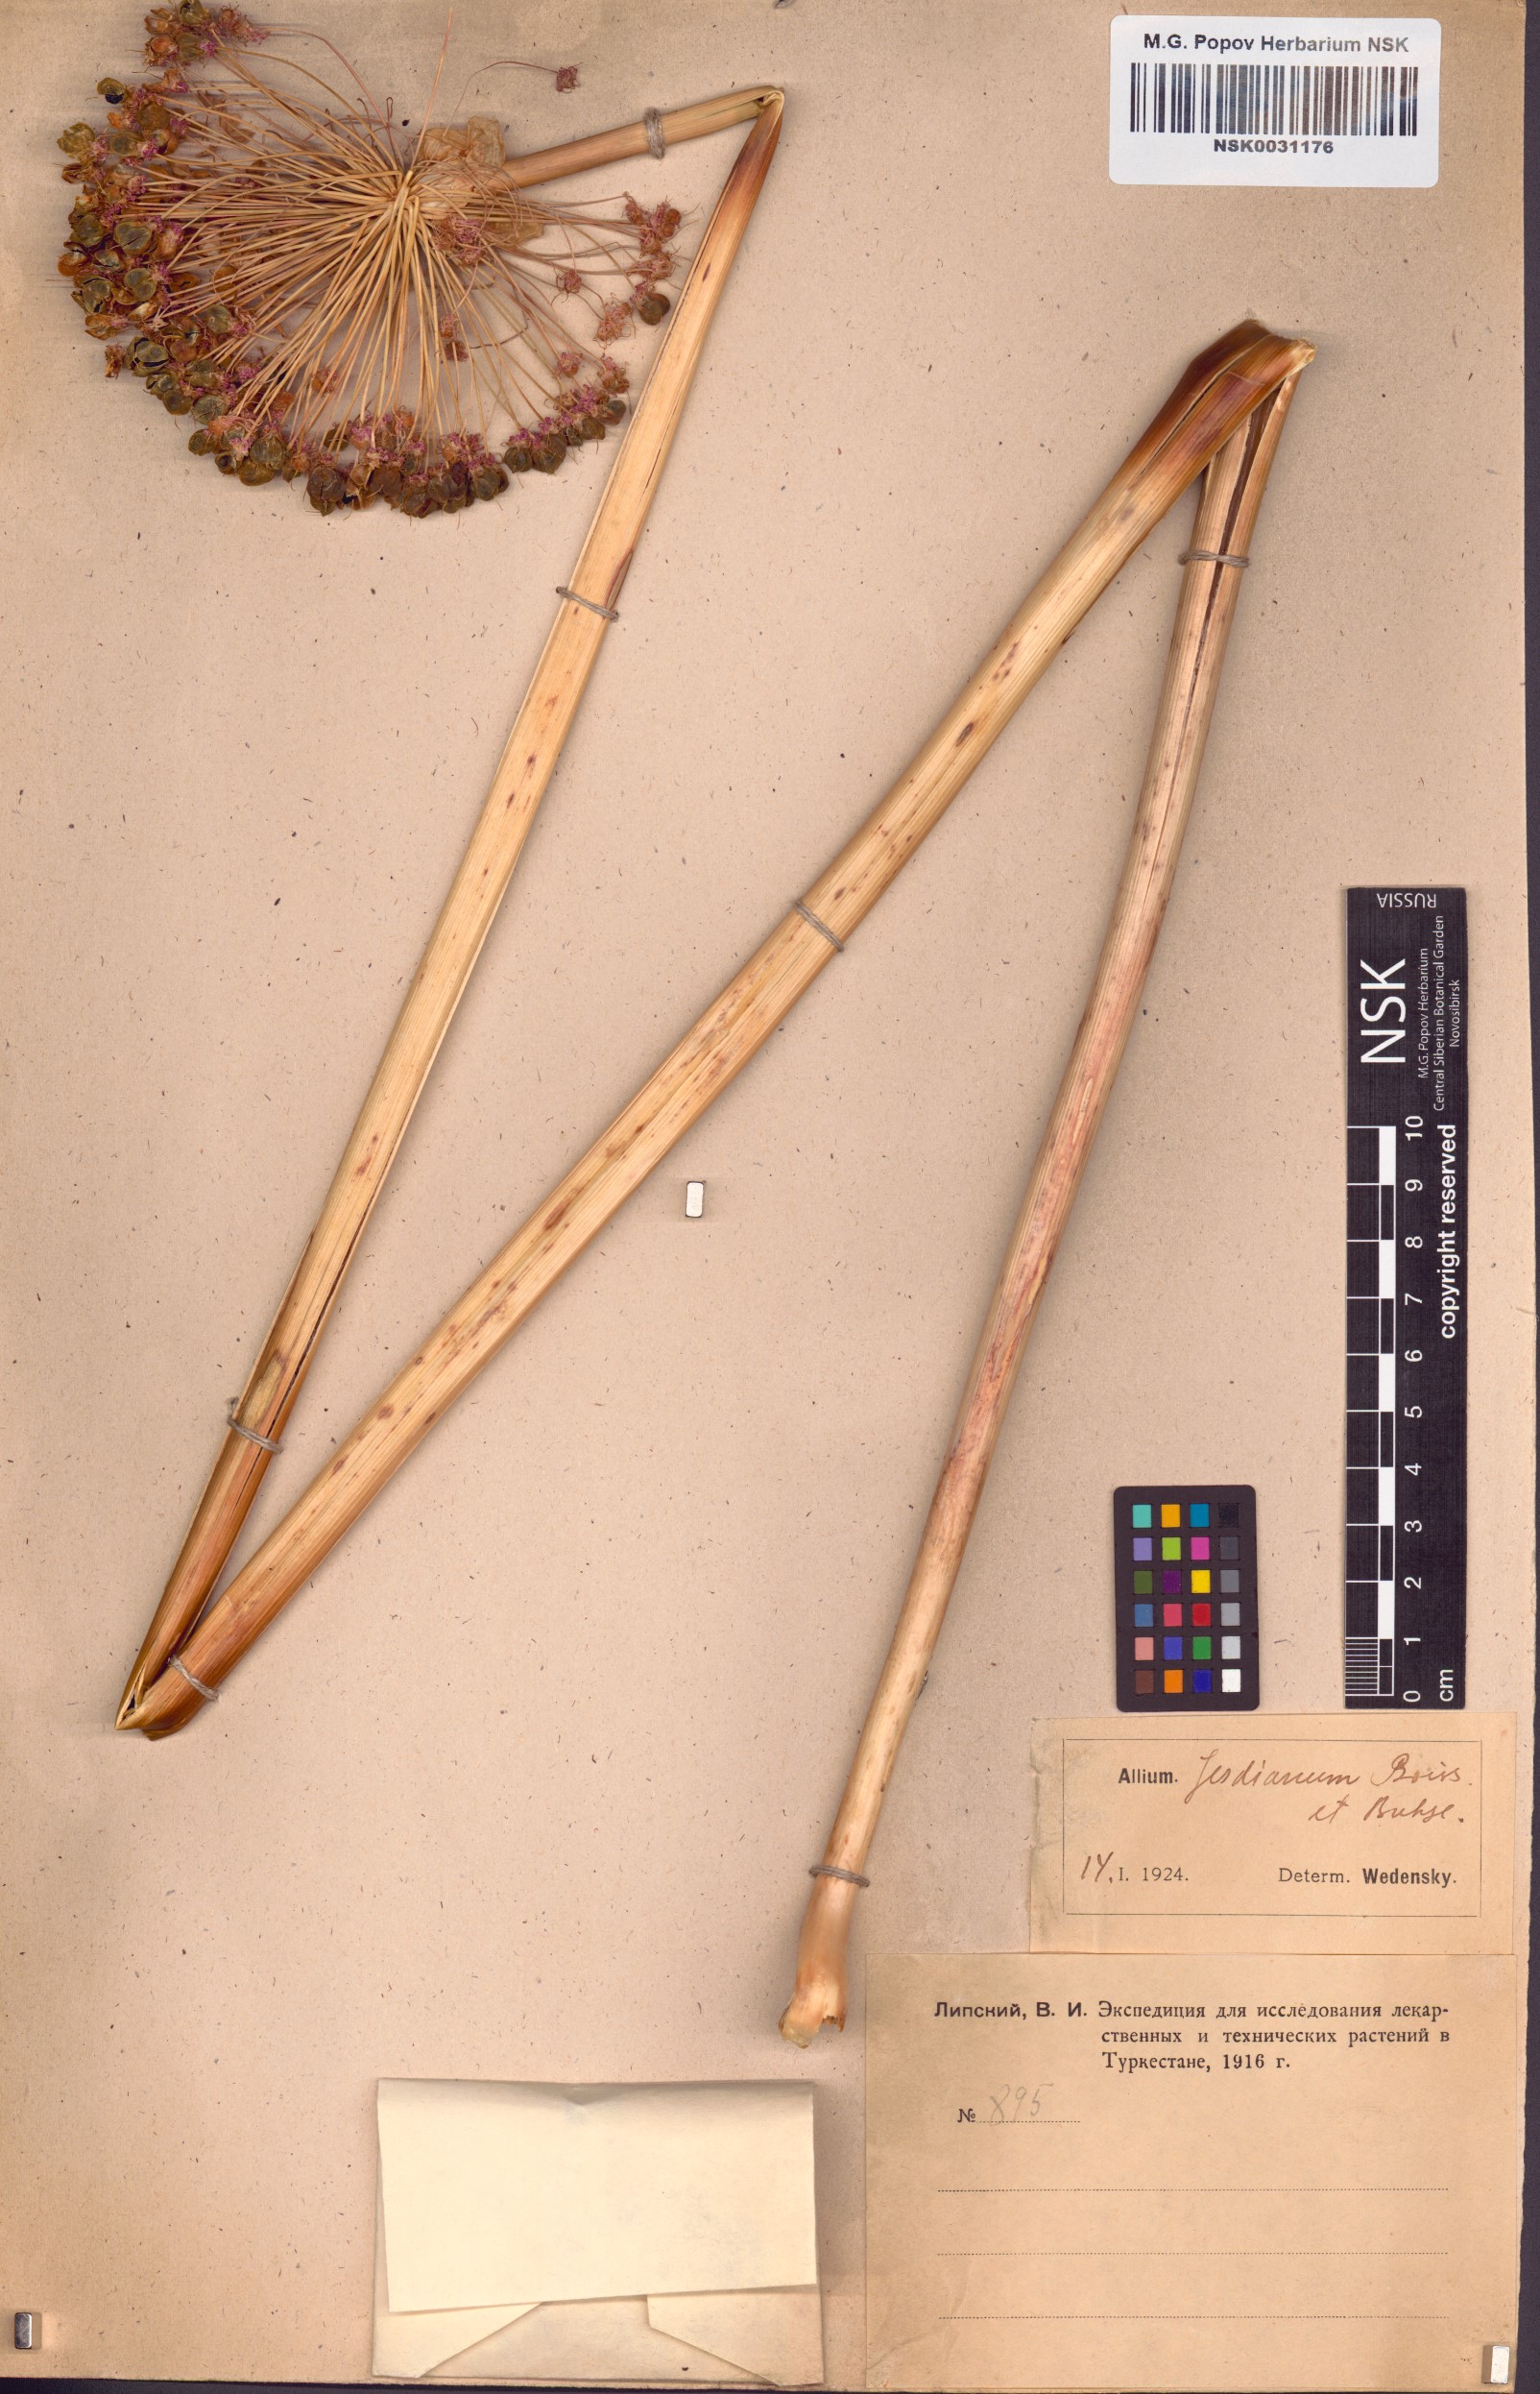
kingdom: Plantae
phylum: Tracheophyta
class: Liliopsida
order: Asparagales
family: Amaryllidaceae
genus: Allium
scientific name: Allium jesdianum
